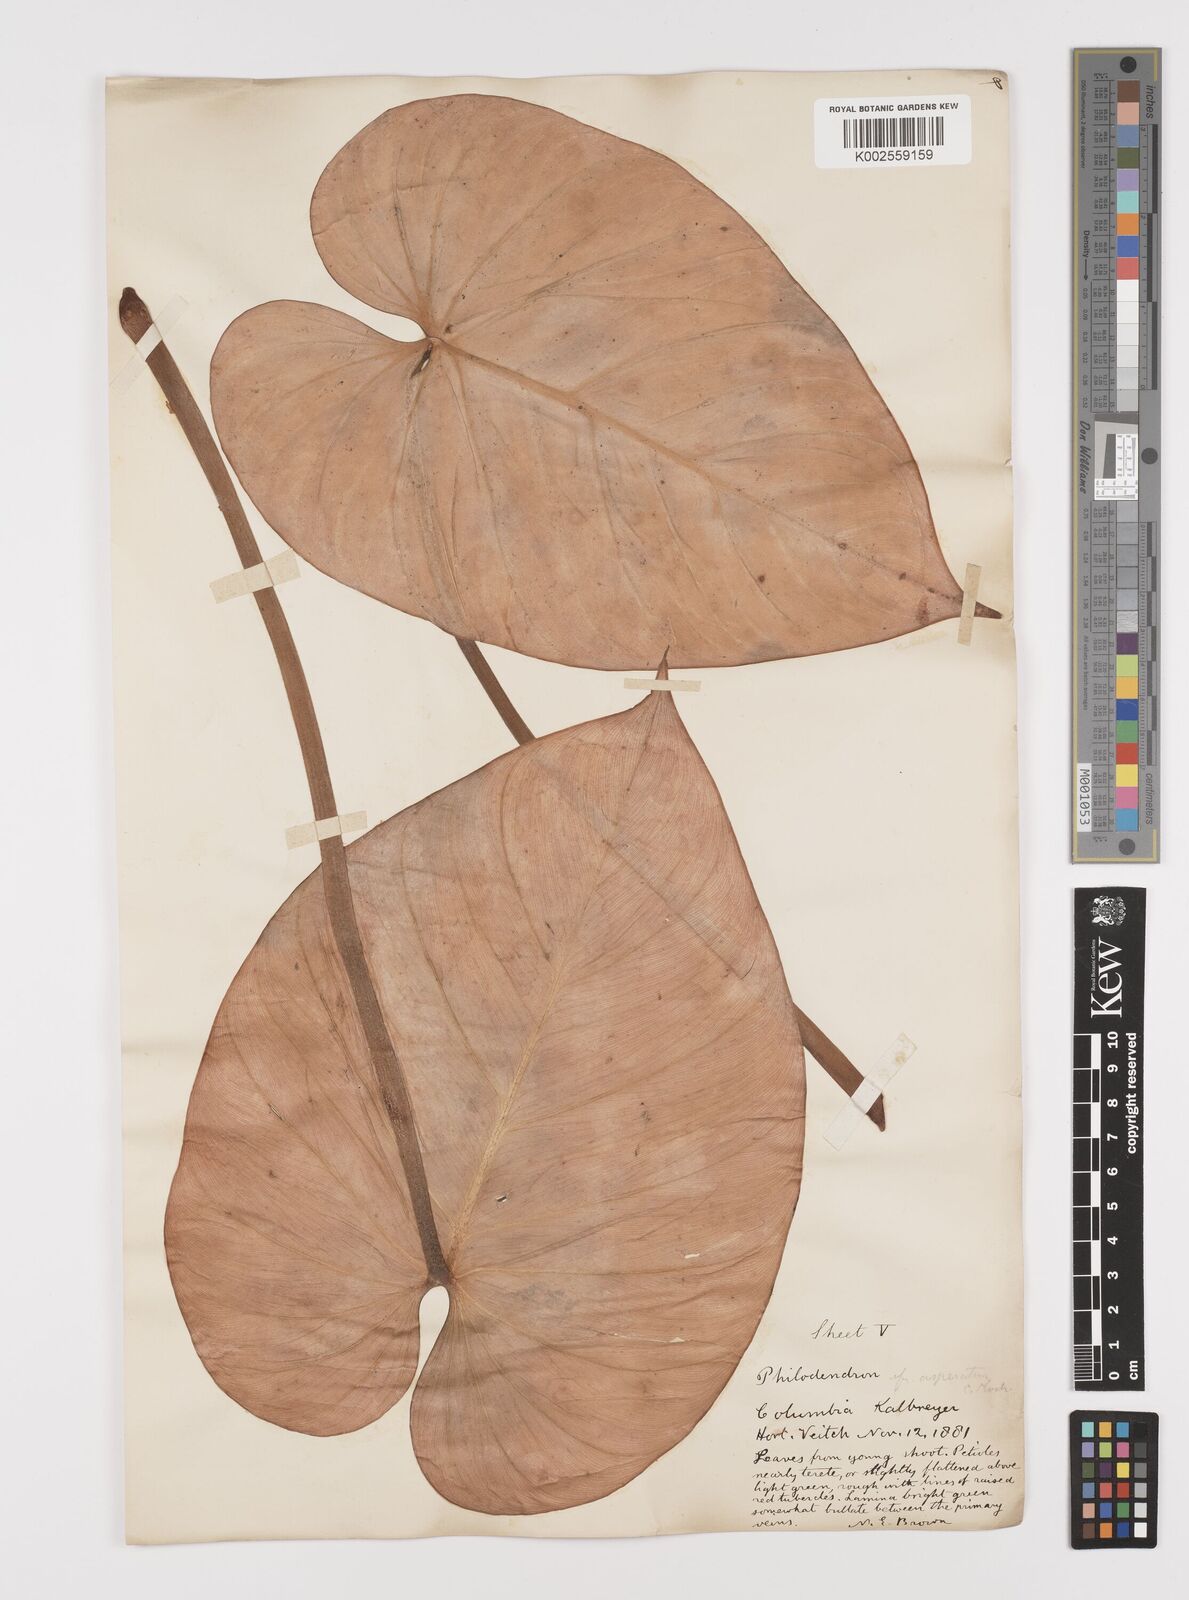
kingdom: Plantae
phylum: Tracheophyta
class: Liliopsida
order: Alismatales
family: Araceae
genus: Philodendron
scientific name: Philodendron ornatum
